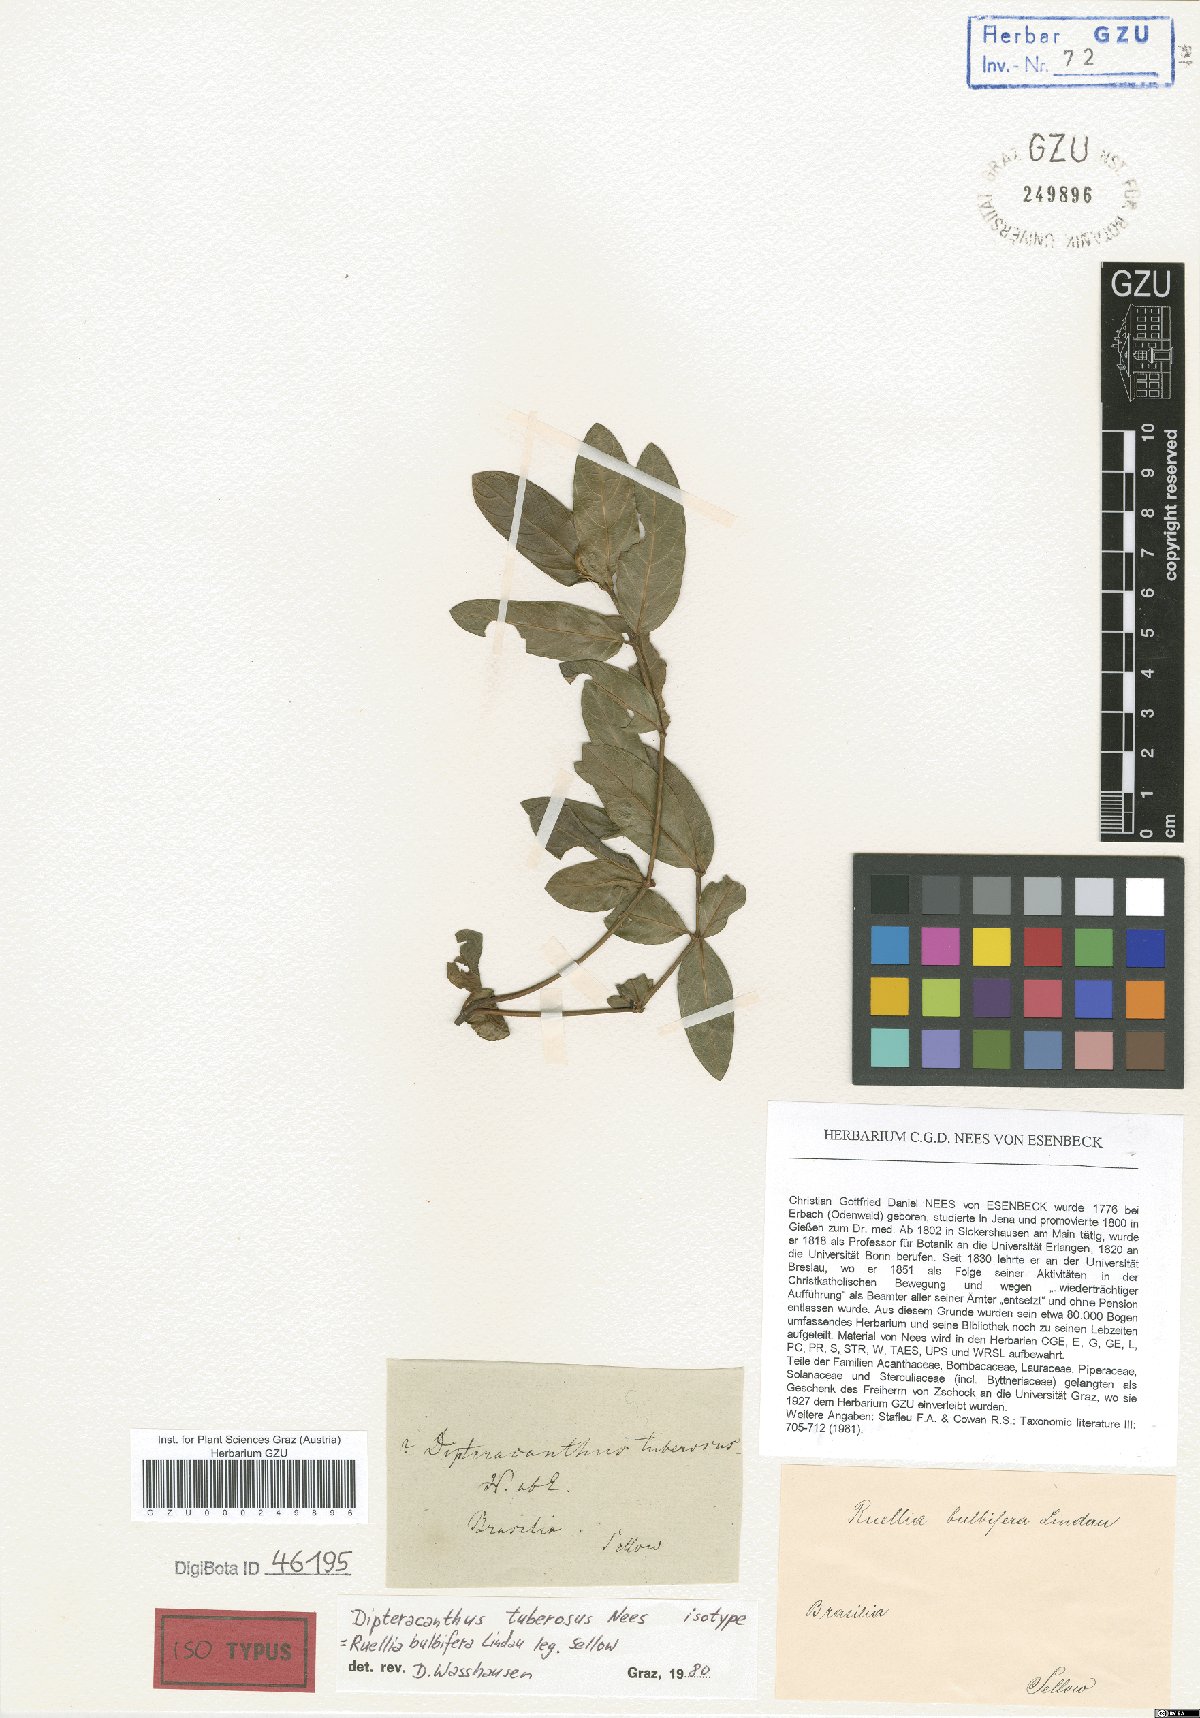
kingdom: Plantae
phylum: Tracheophyta
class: Magnoliopsida
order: Lamiales
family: Acanthaceae
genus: Ruellia
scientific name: Ruellia bulbifera
